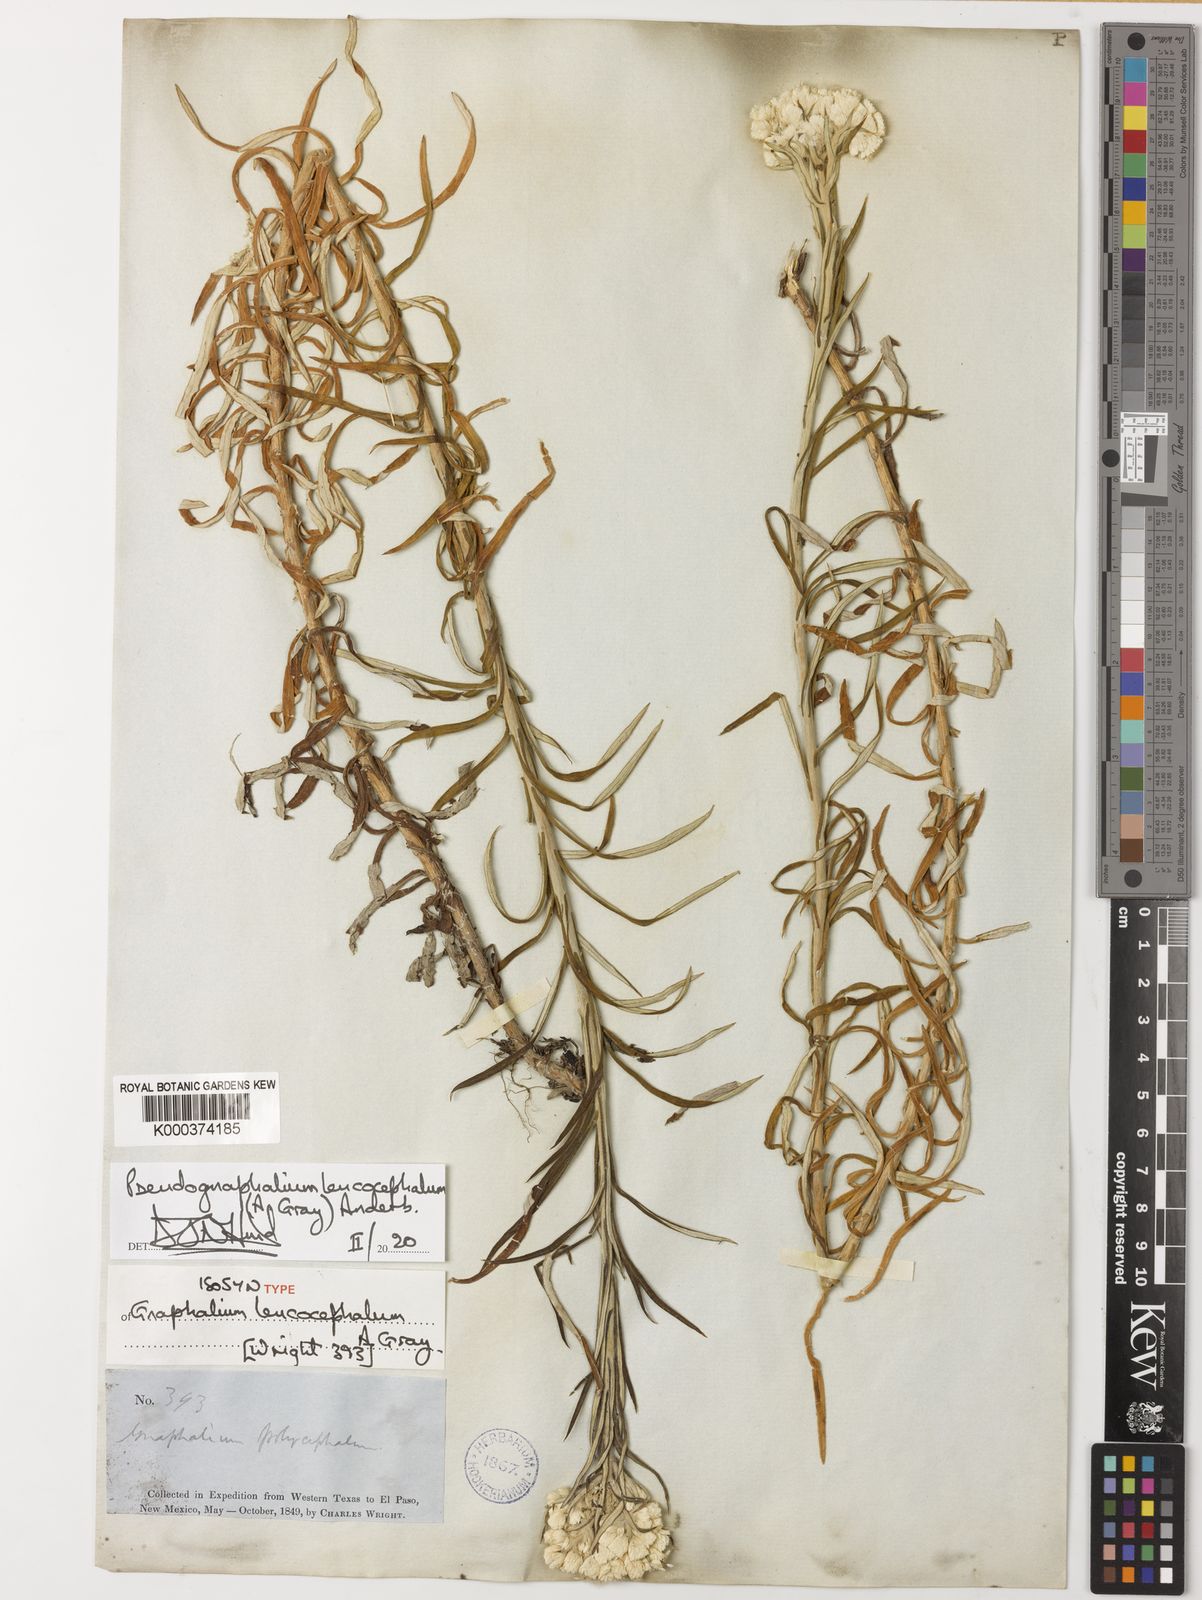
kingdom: Plantae
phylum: Tracheophyta
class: Magnoliopsida
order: Asterales
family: Asteraceae
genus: Pseudognaphalium
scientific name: Pseudognaphalium leucocephalum
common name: White cudweed
